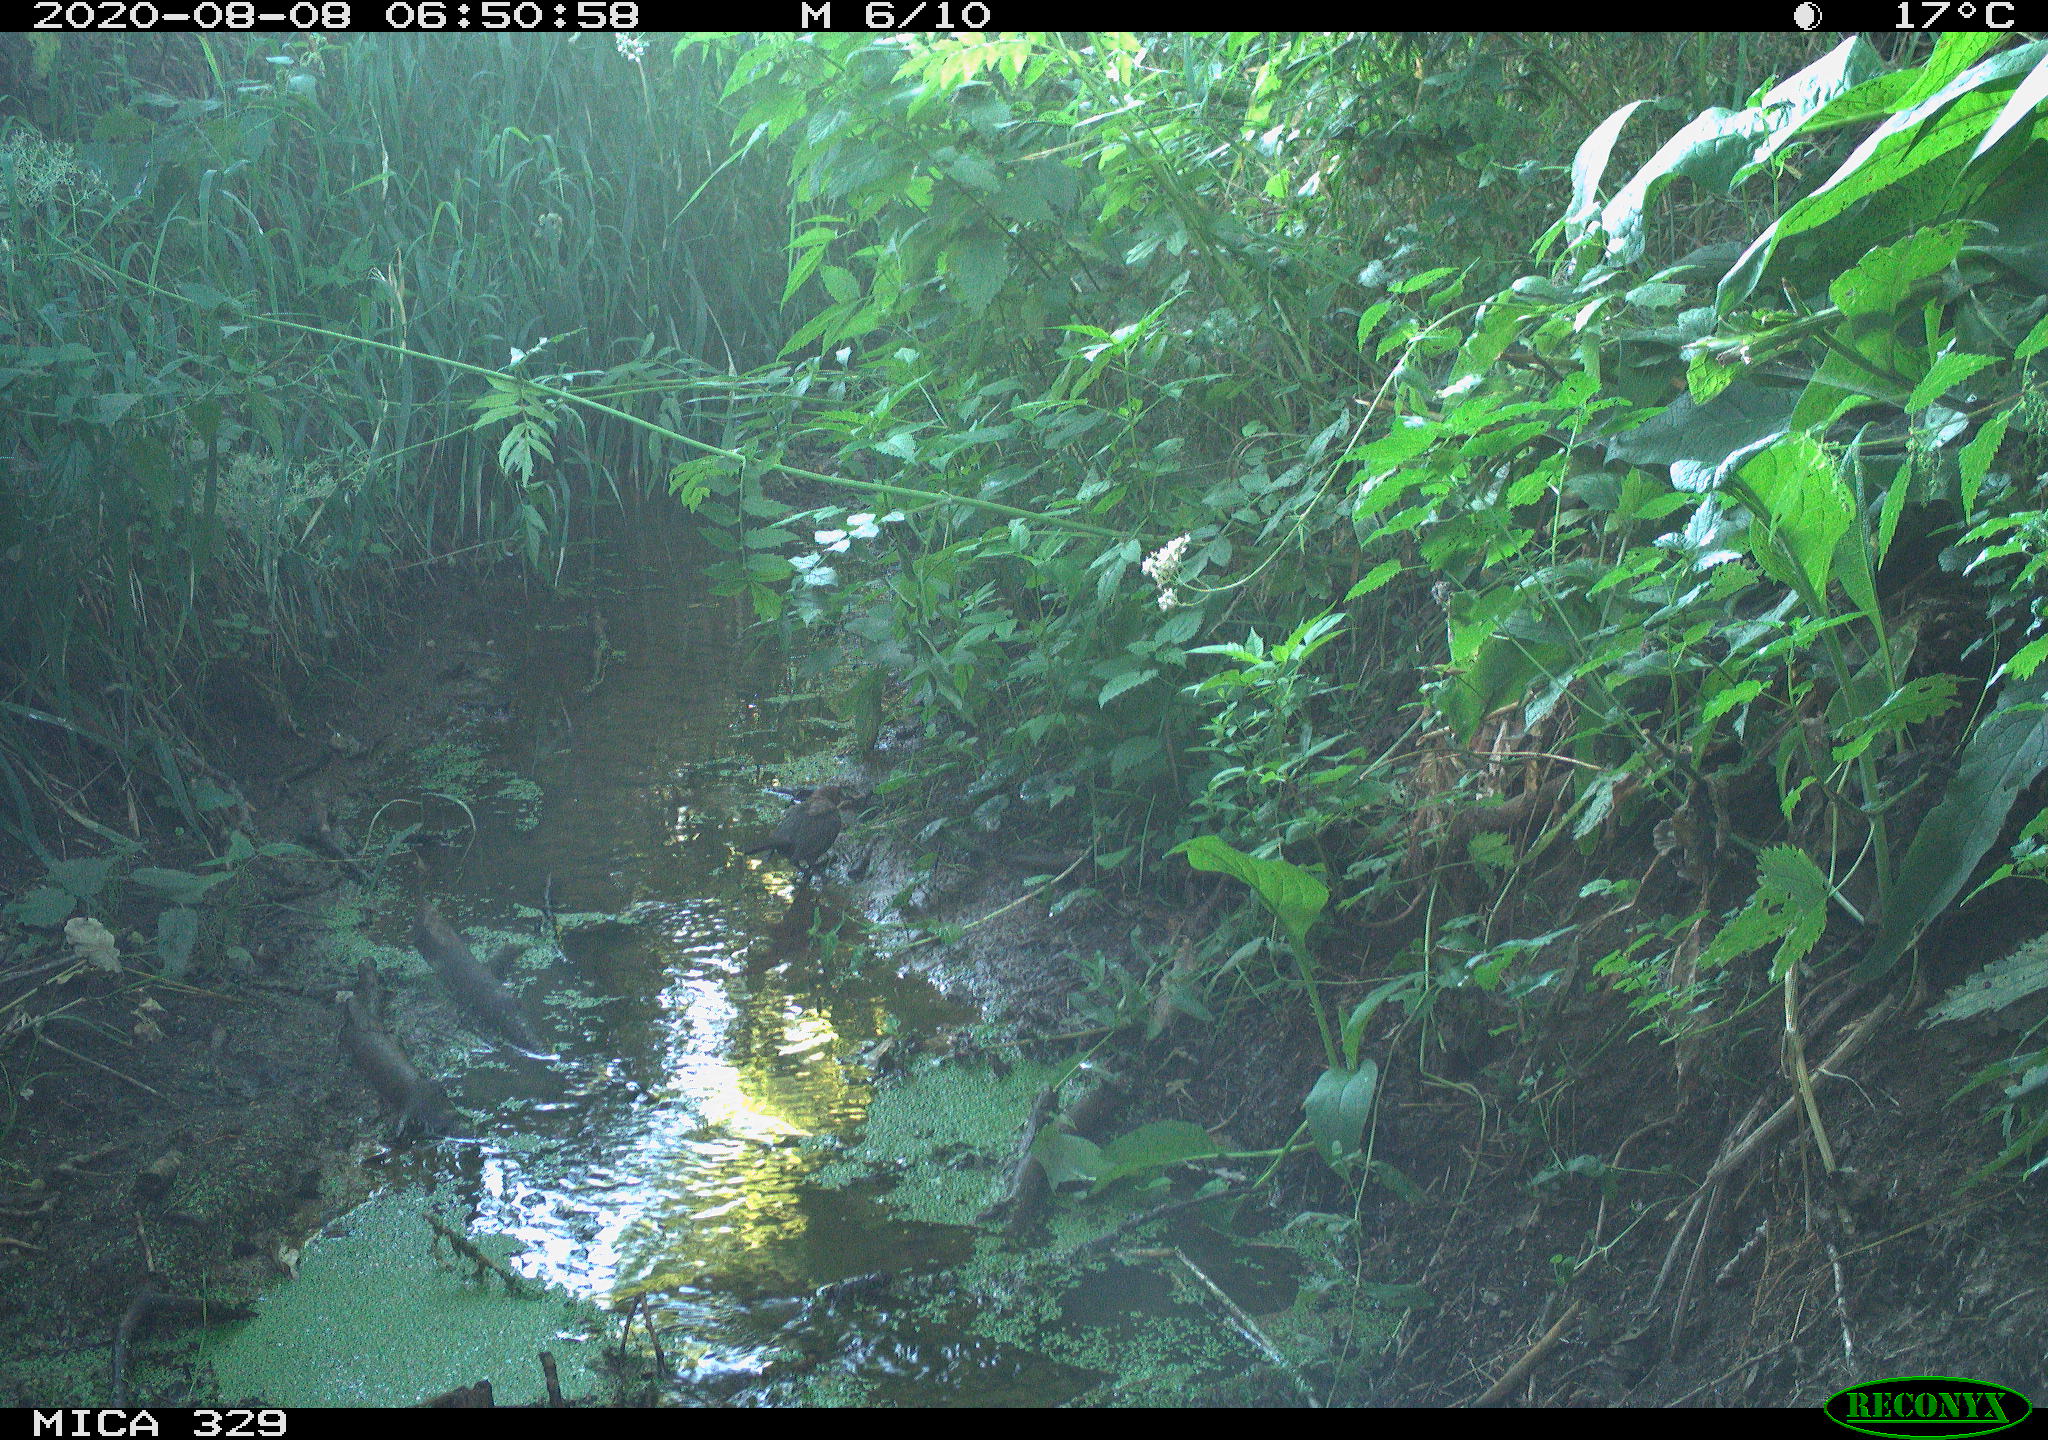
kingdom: Animalia
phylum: Chordata
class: Aves
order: Passeriformes
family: Turdidae
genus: Turdus
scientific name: Turdus philomelos
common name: Song thrush
